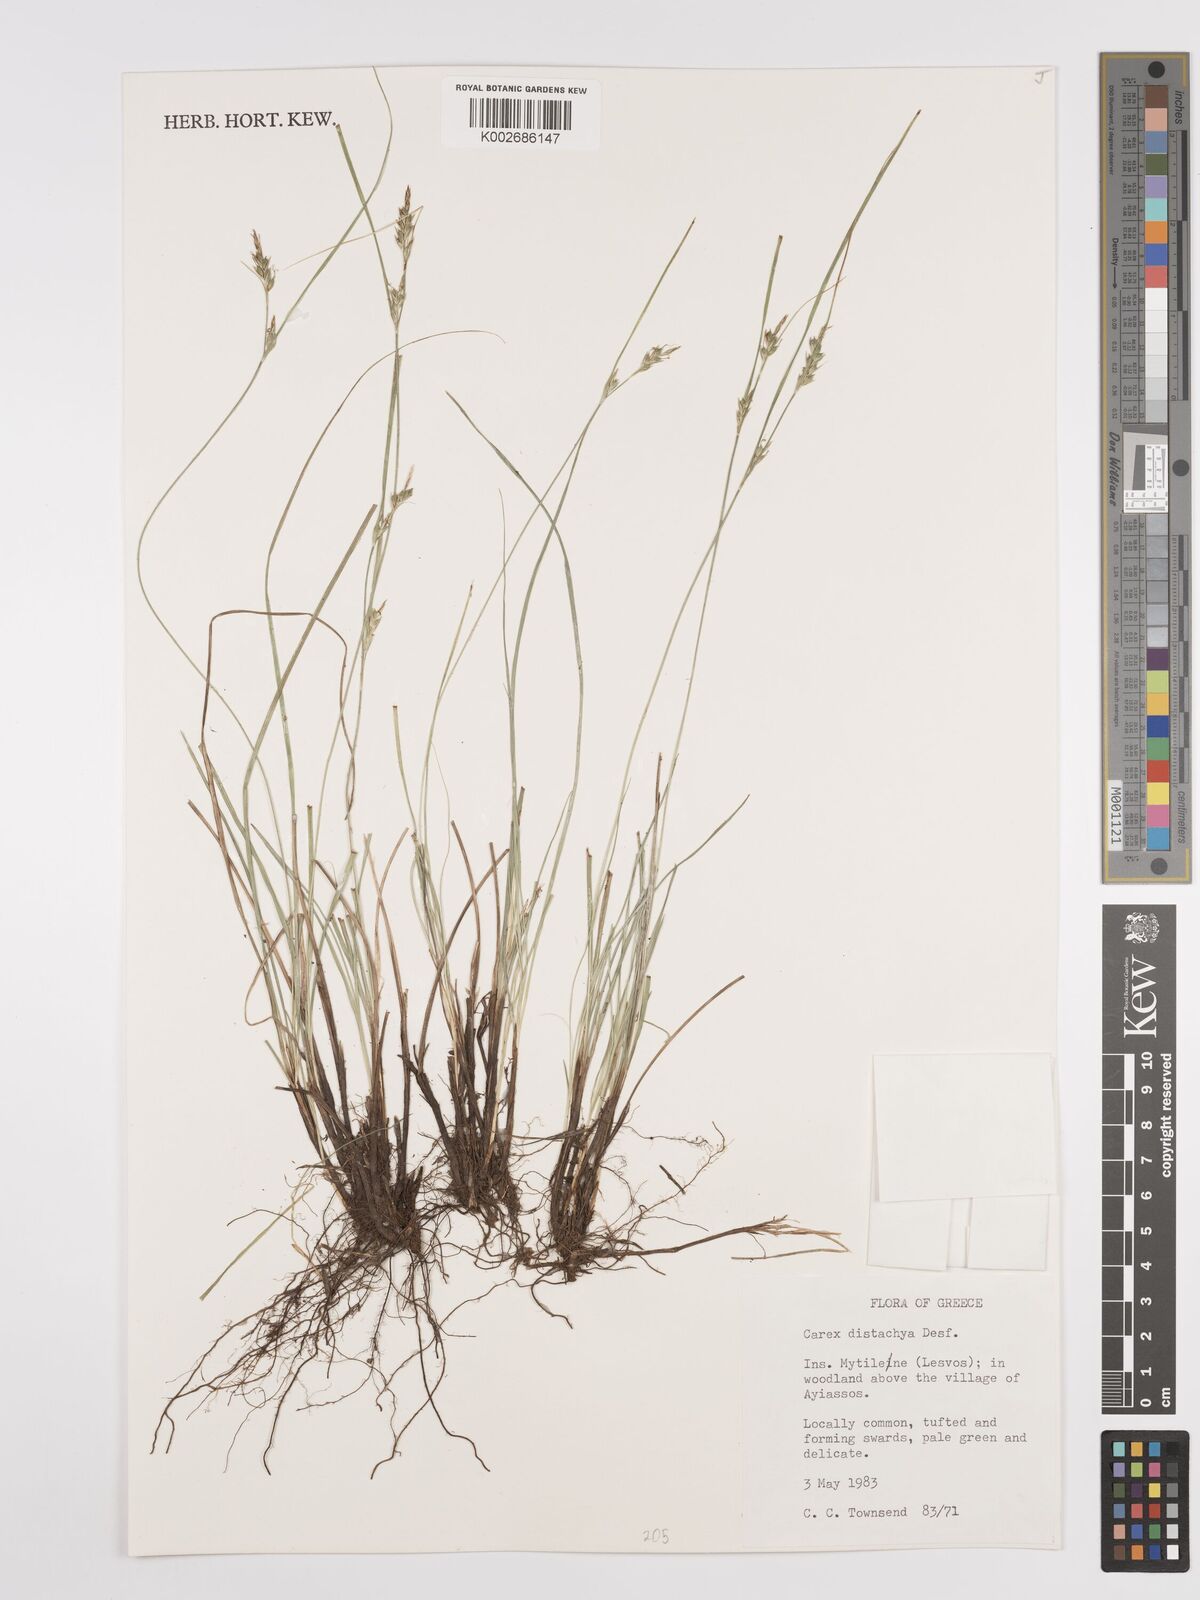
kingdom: Plantae
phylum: Tracheophyta
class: Liliopsida
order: Poales
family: Cyperaceae
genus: Carex
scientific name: Carex distachya
